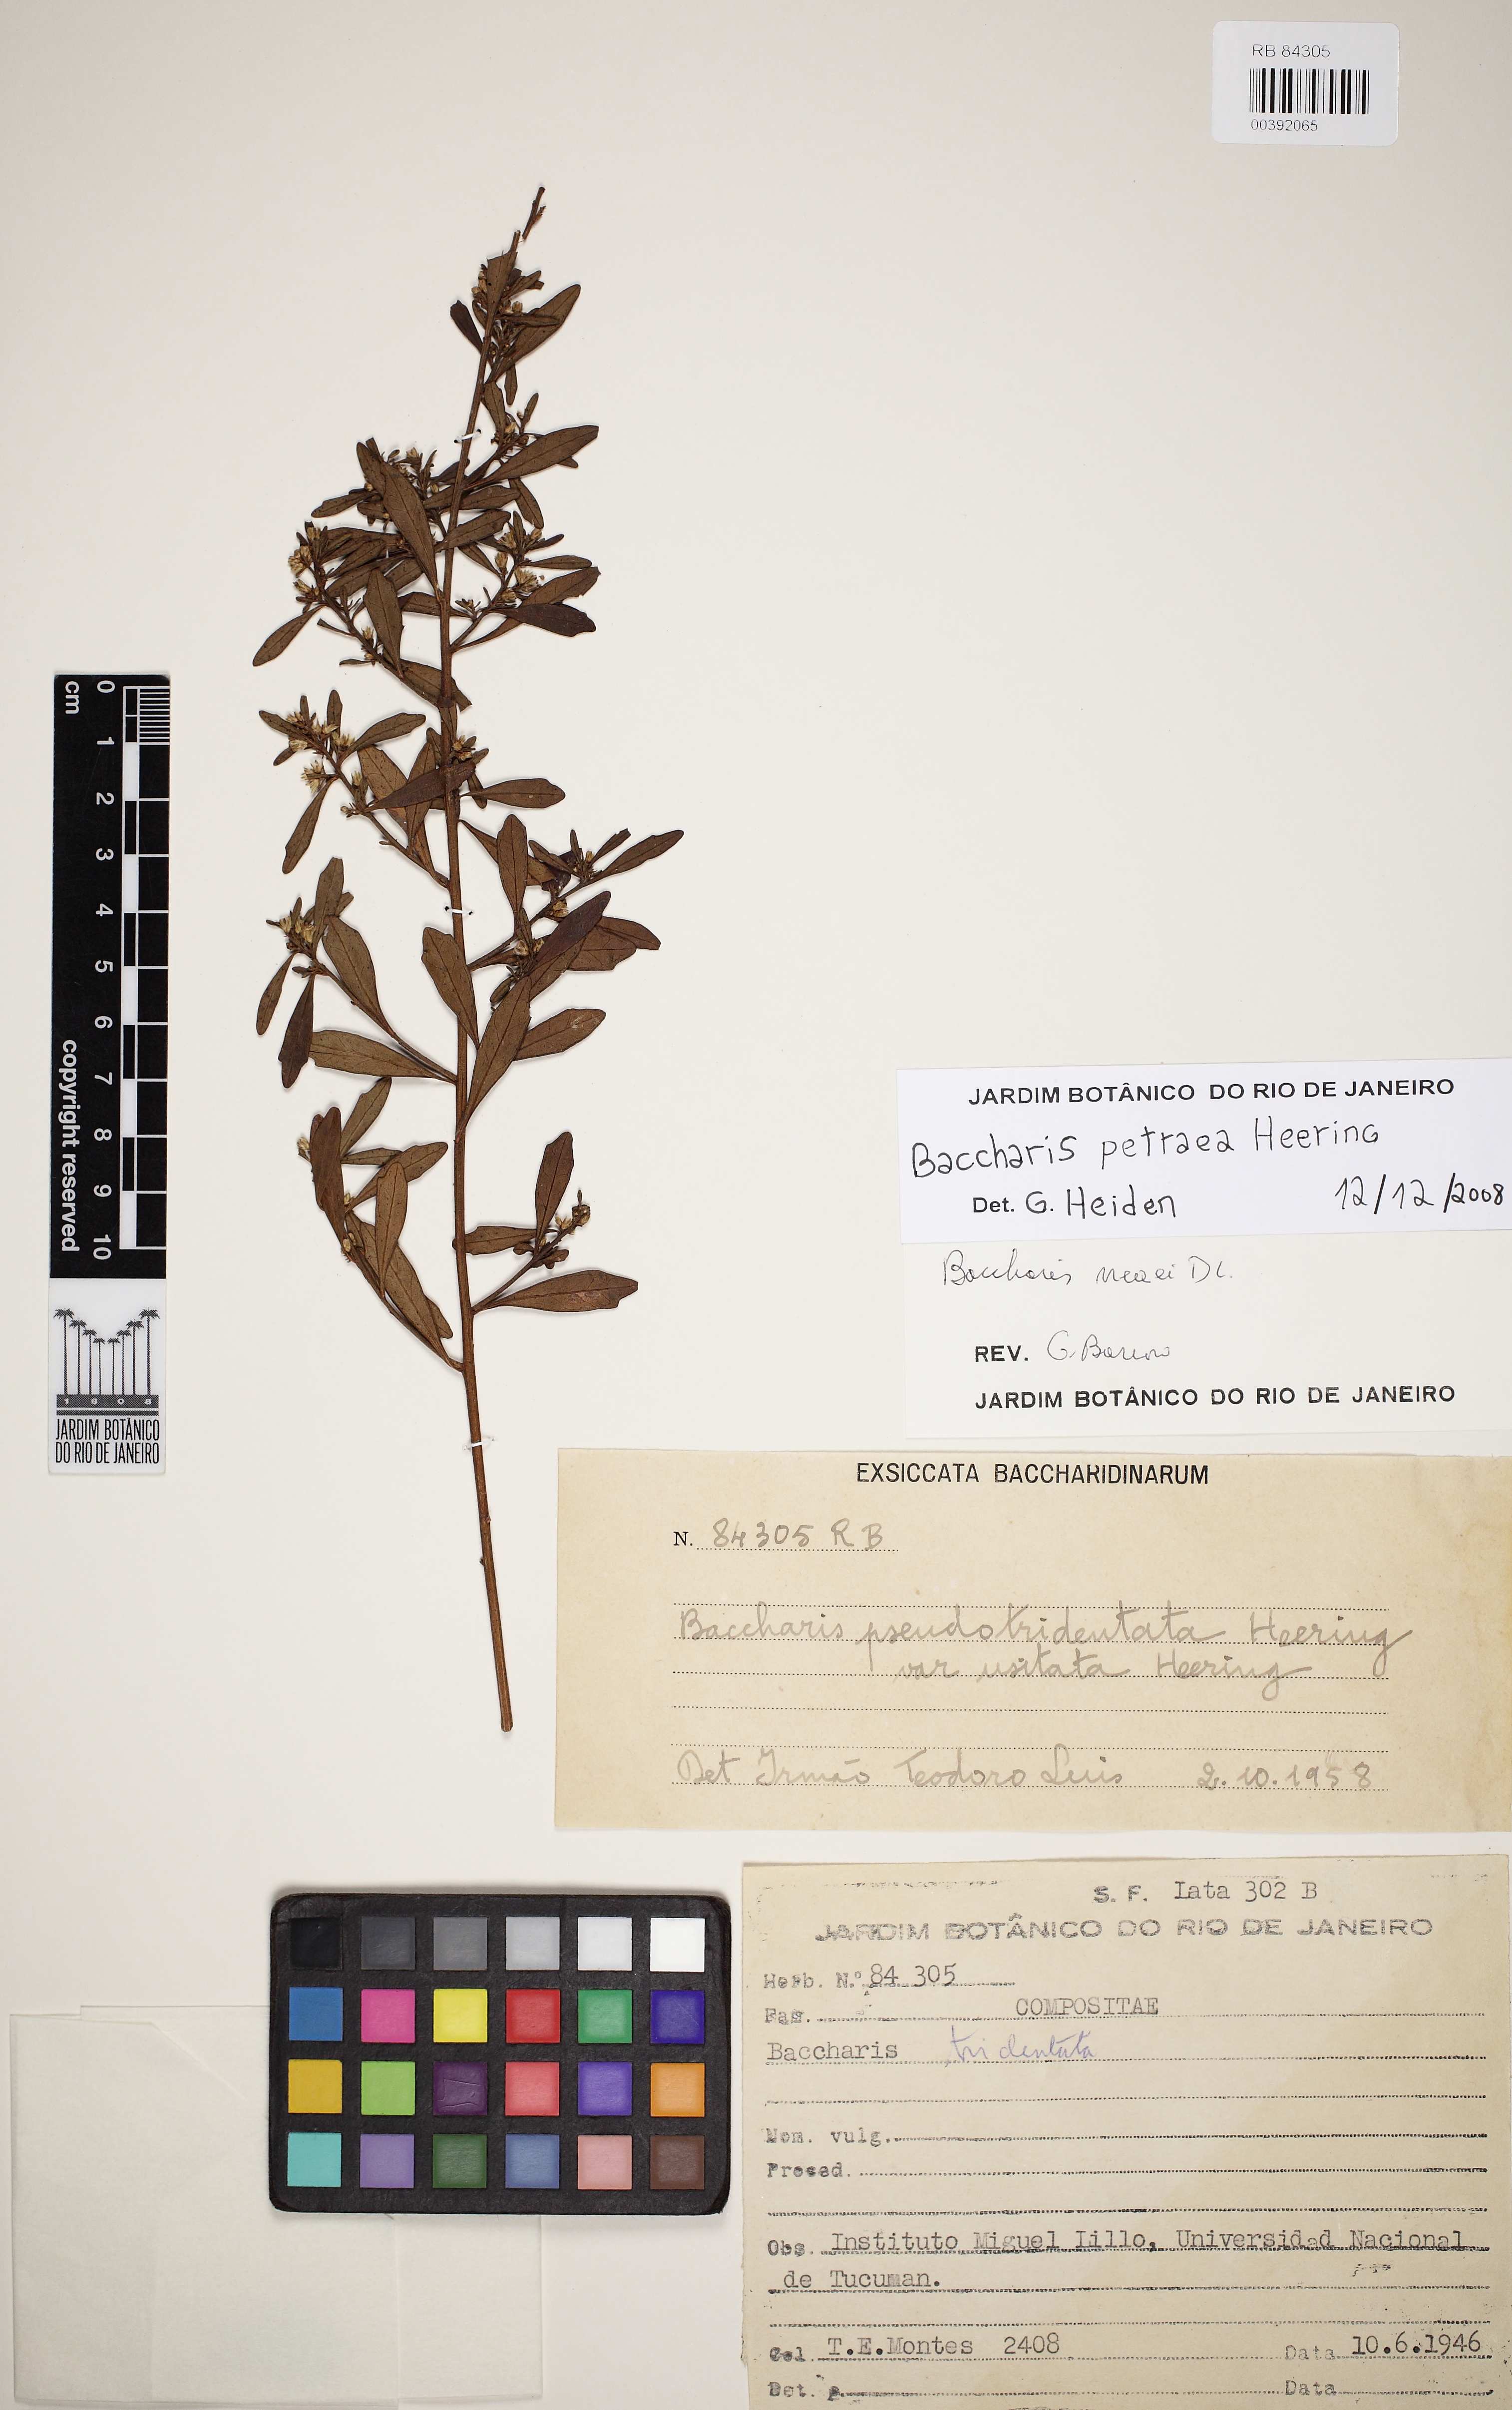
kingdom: Plantae
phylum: Tracheophyta
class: Magnoliopsida
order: Asterales
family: Asteraceae
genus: Baccharis
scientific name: Baccharis petraea
